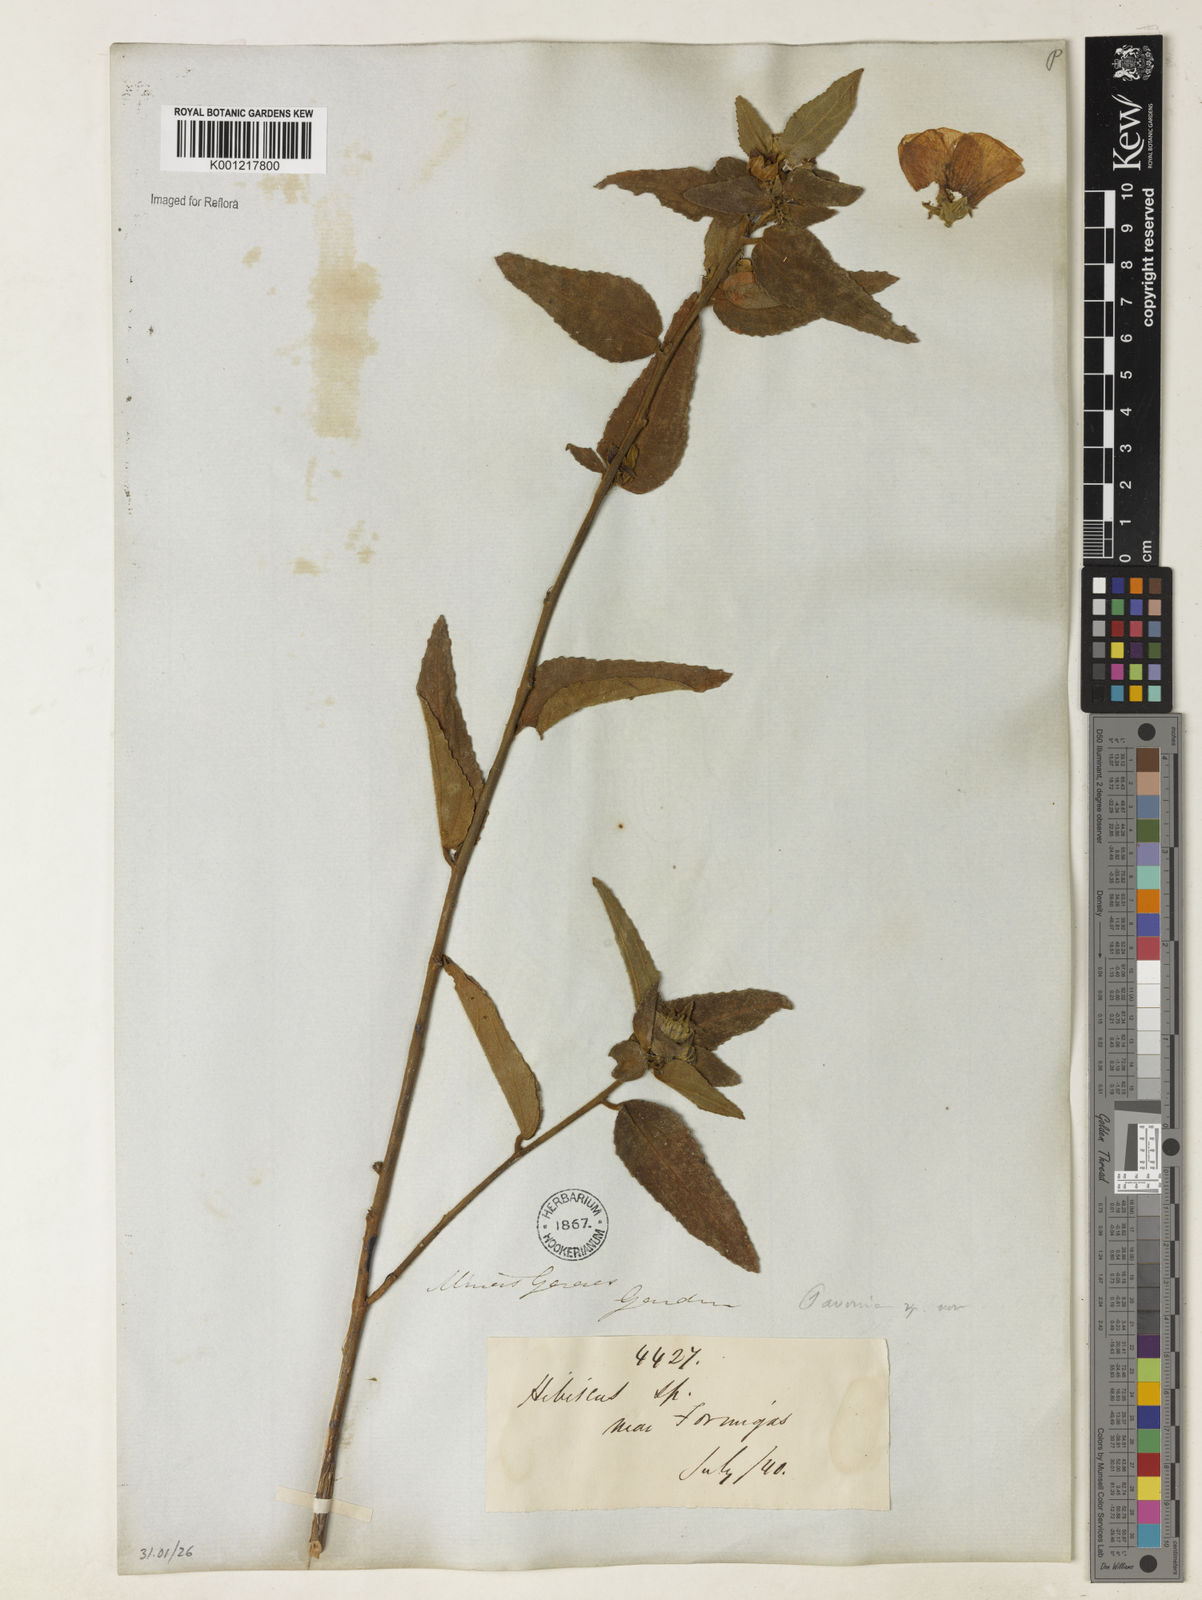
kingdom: Plantae
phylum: Tracheophyta
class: Magnoliopsida
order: Malvales
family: Malvaceae
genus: Pavonia
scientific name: Pavonia
